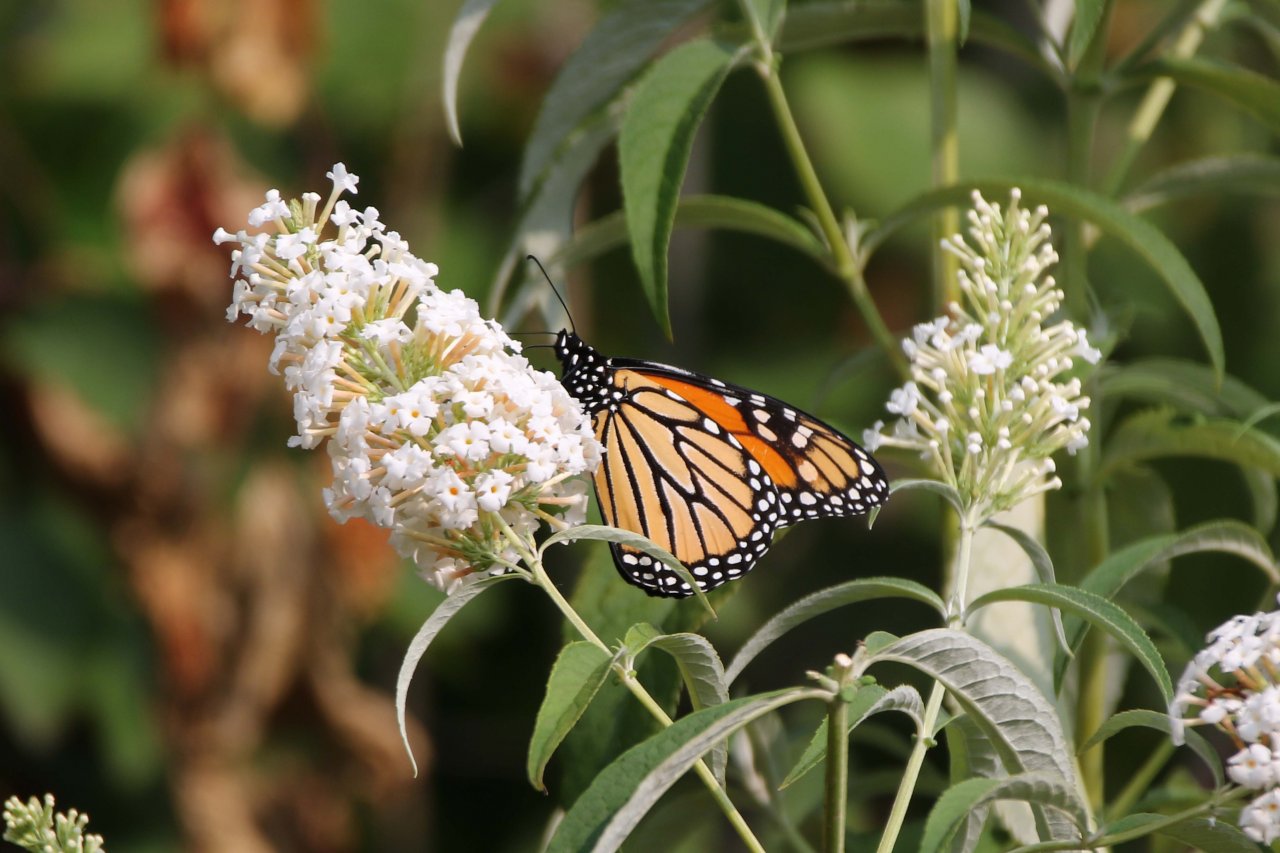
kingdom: Animalia
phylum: Arthropoda
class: Insecta
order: Lepidoptera
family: Nymphalidae
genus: Danaus
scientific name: Danaus plexippus
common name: Monarch
